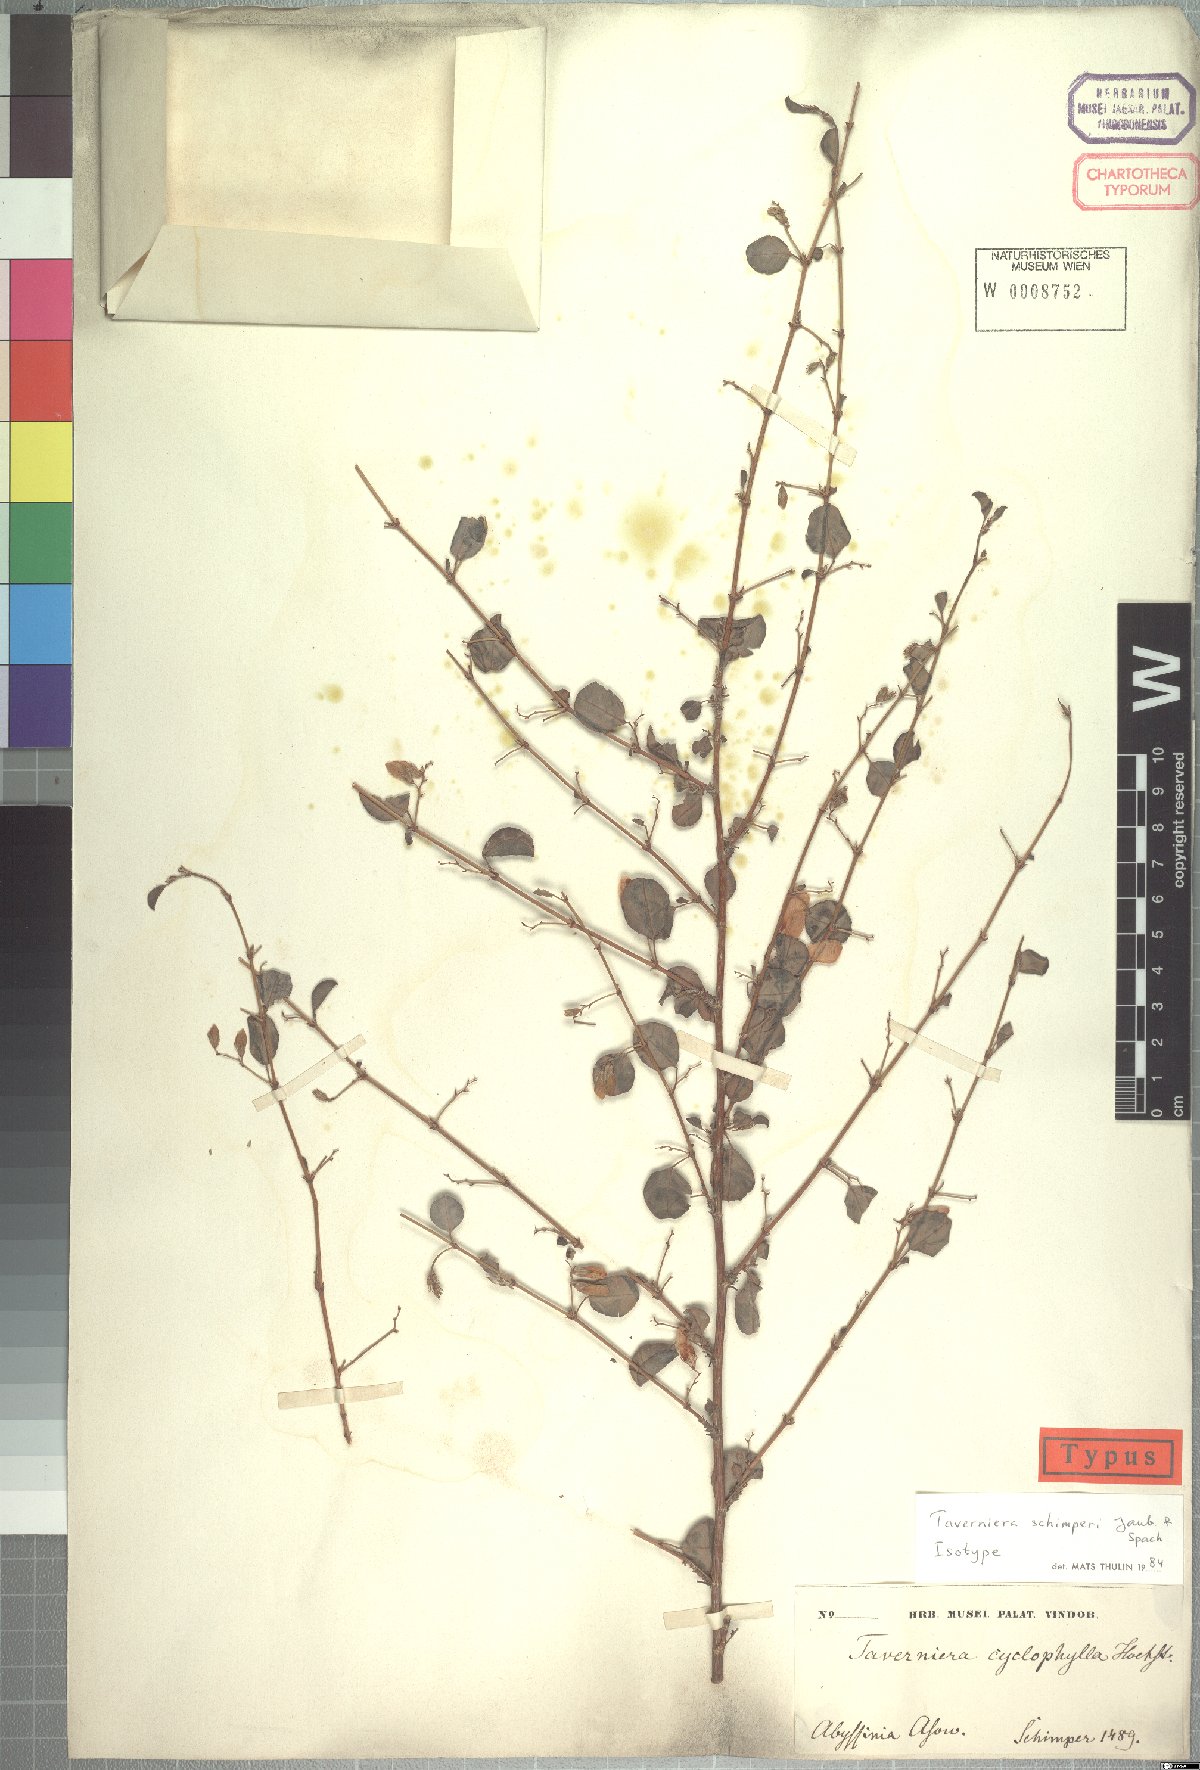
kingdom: Plantae
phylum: Tracheophyta
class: Magnoliopsida
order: Fabales
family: Fabaceae
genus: Taverniera
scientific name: Taverniera schimperi
